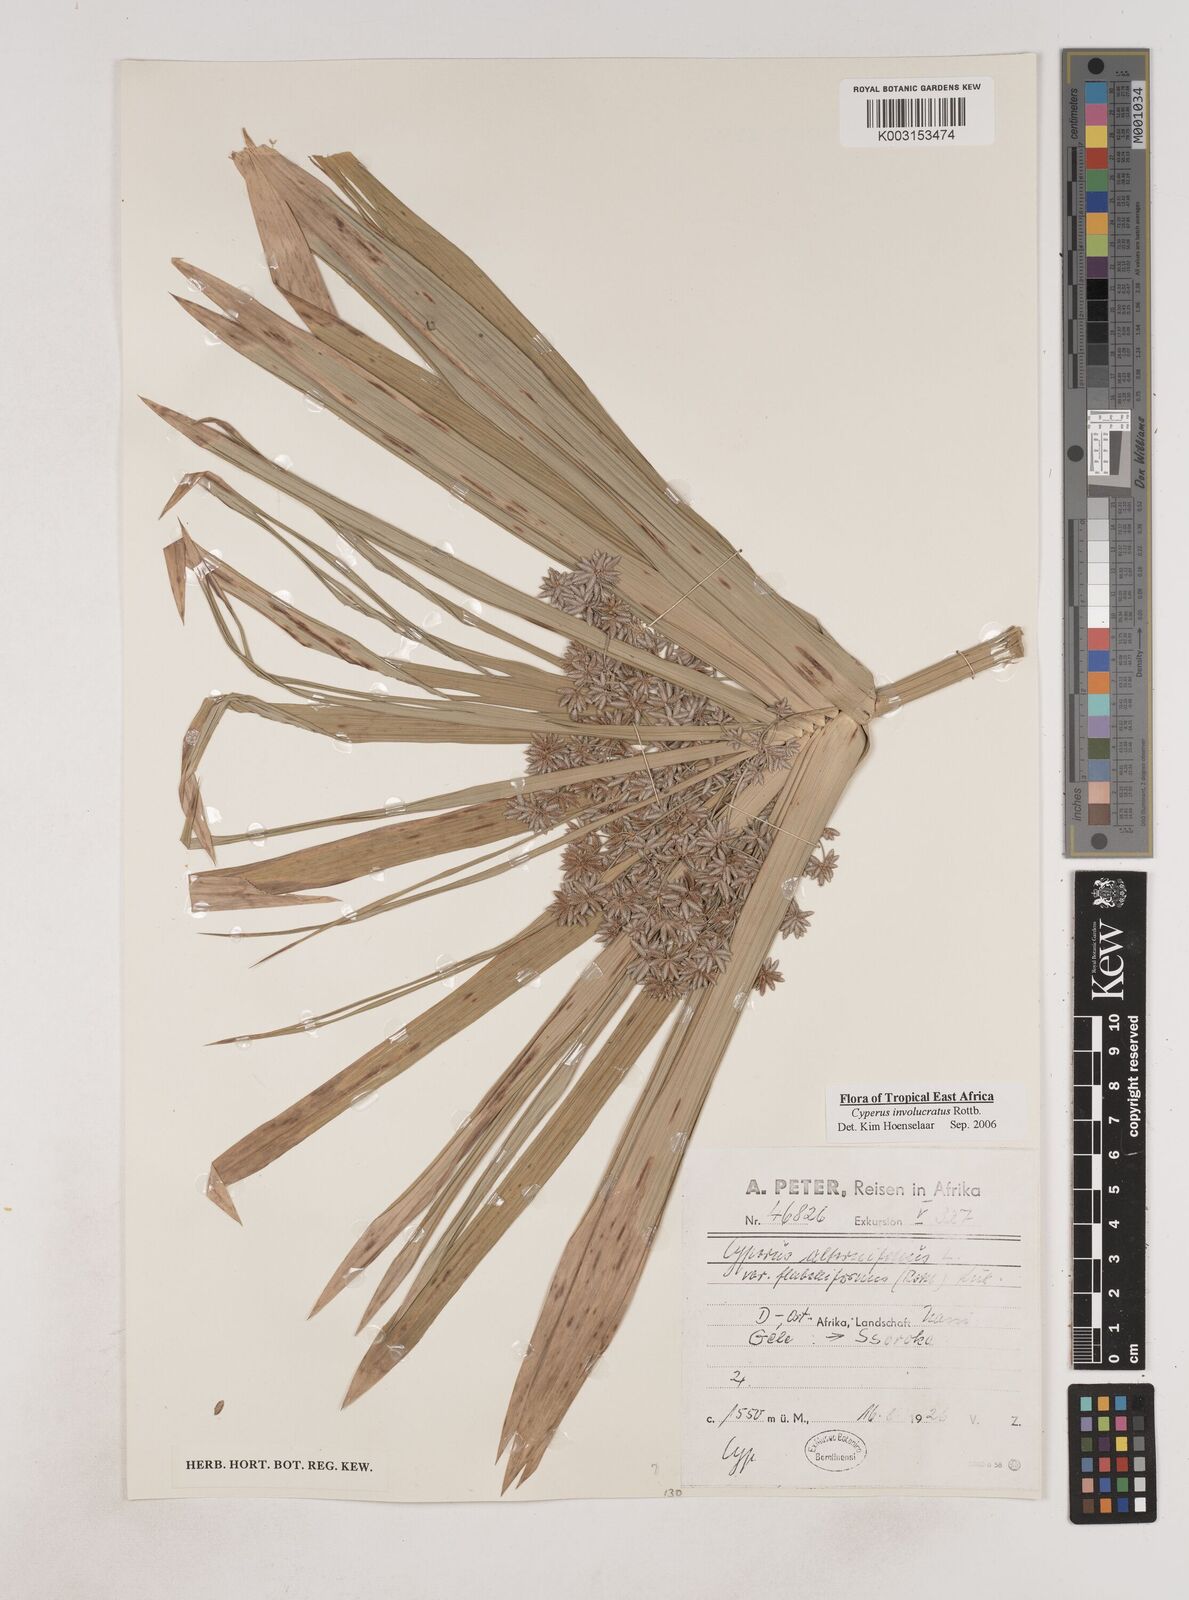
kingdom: Plantae
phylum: Tracheophyta
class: Liliopsida
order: Poales
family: Cyperaceae
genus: Cyperus
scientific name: Cyperus alternifolius
